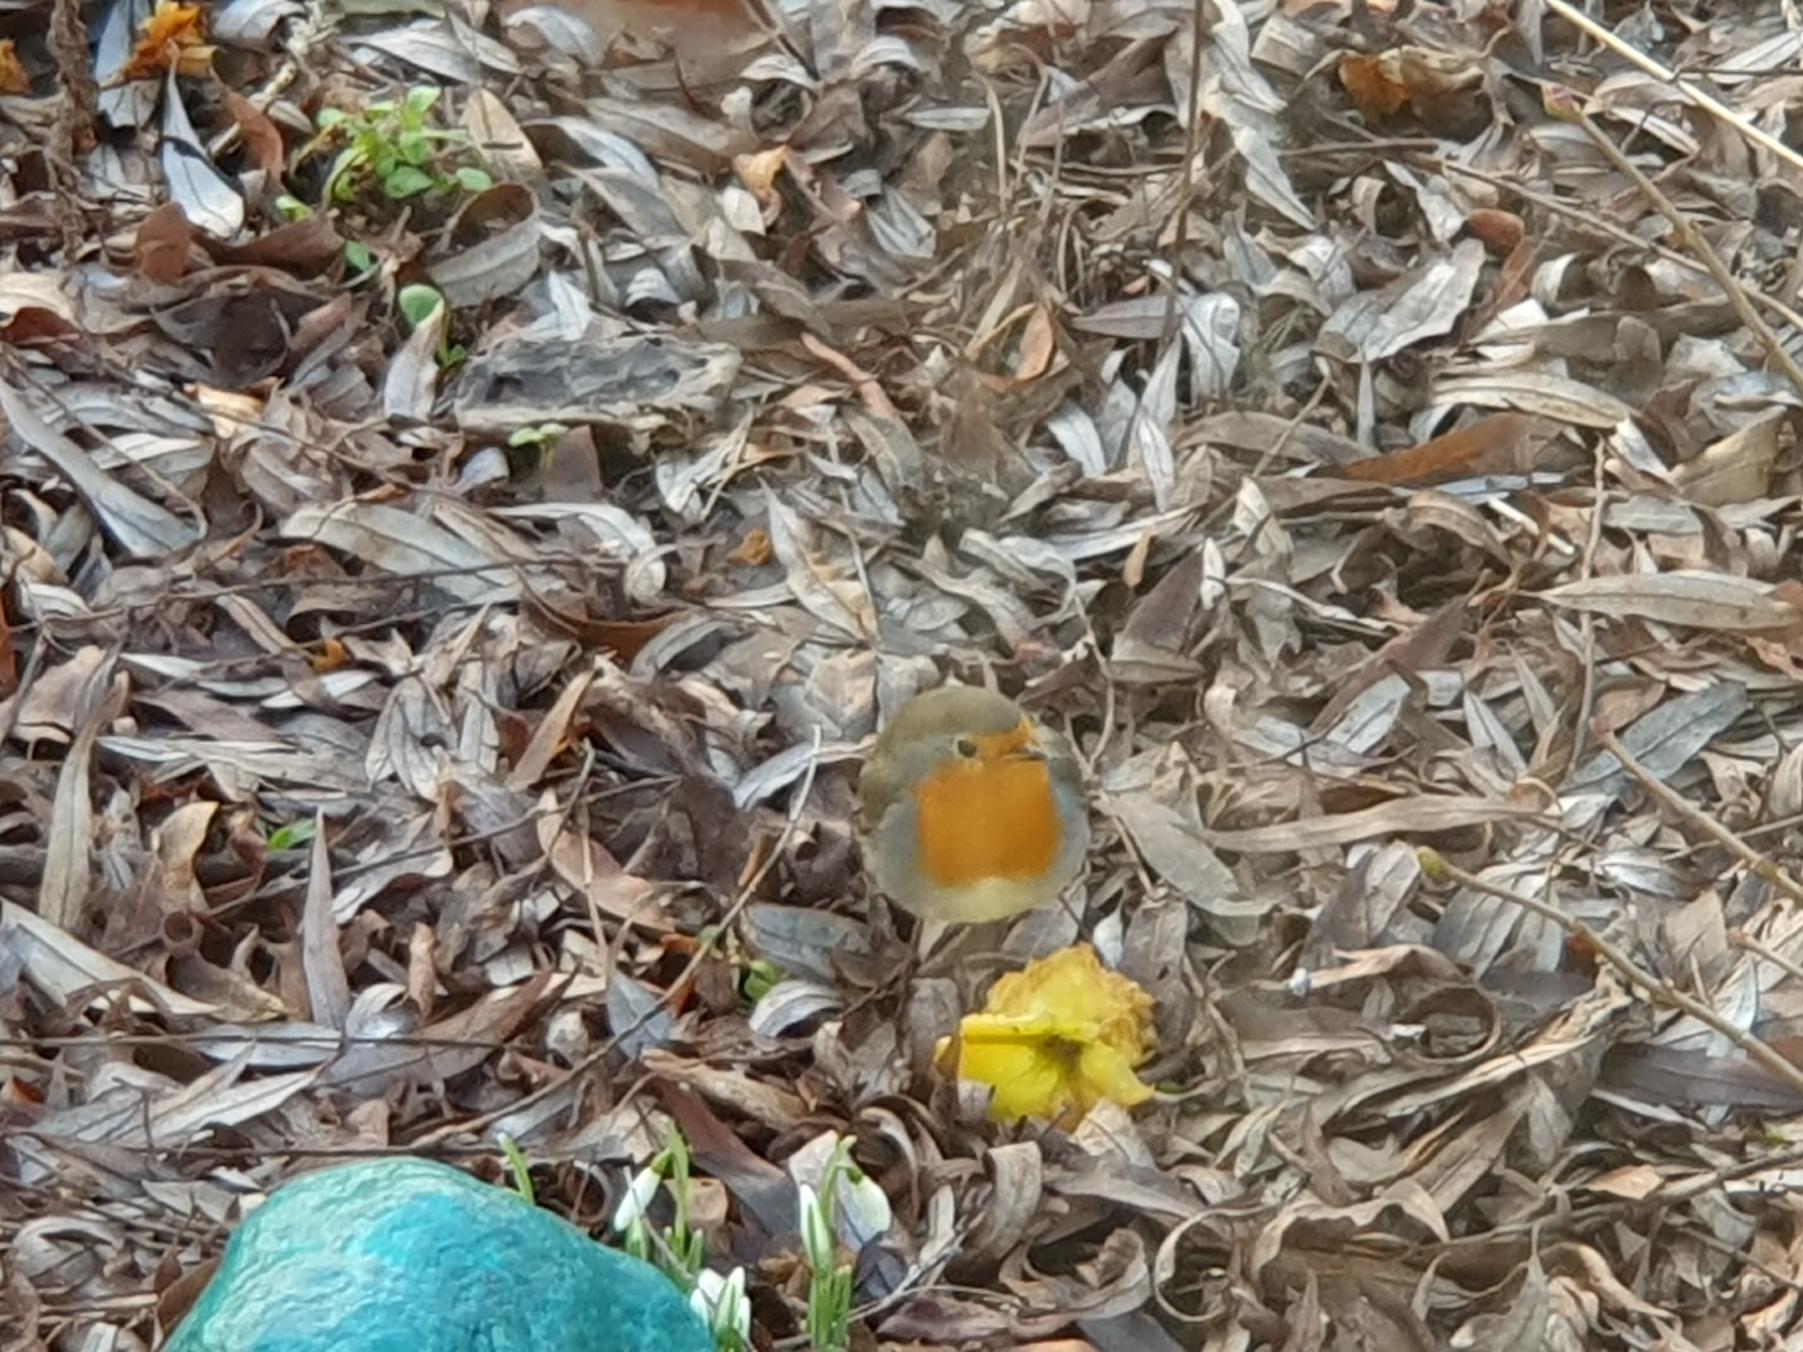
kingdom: Animalia
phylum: Chordata
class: Aves
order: Passeriformes
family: Muscicapidae
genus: Erithacus
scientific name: Erithacus rubecula
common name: Rødhals/rødkælk
